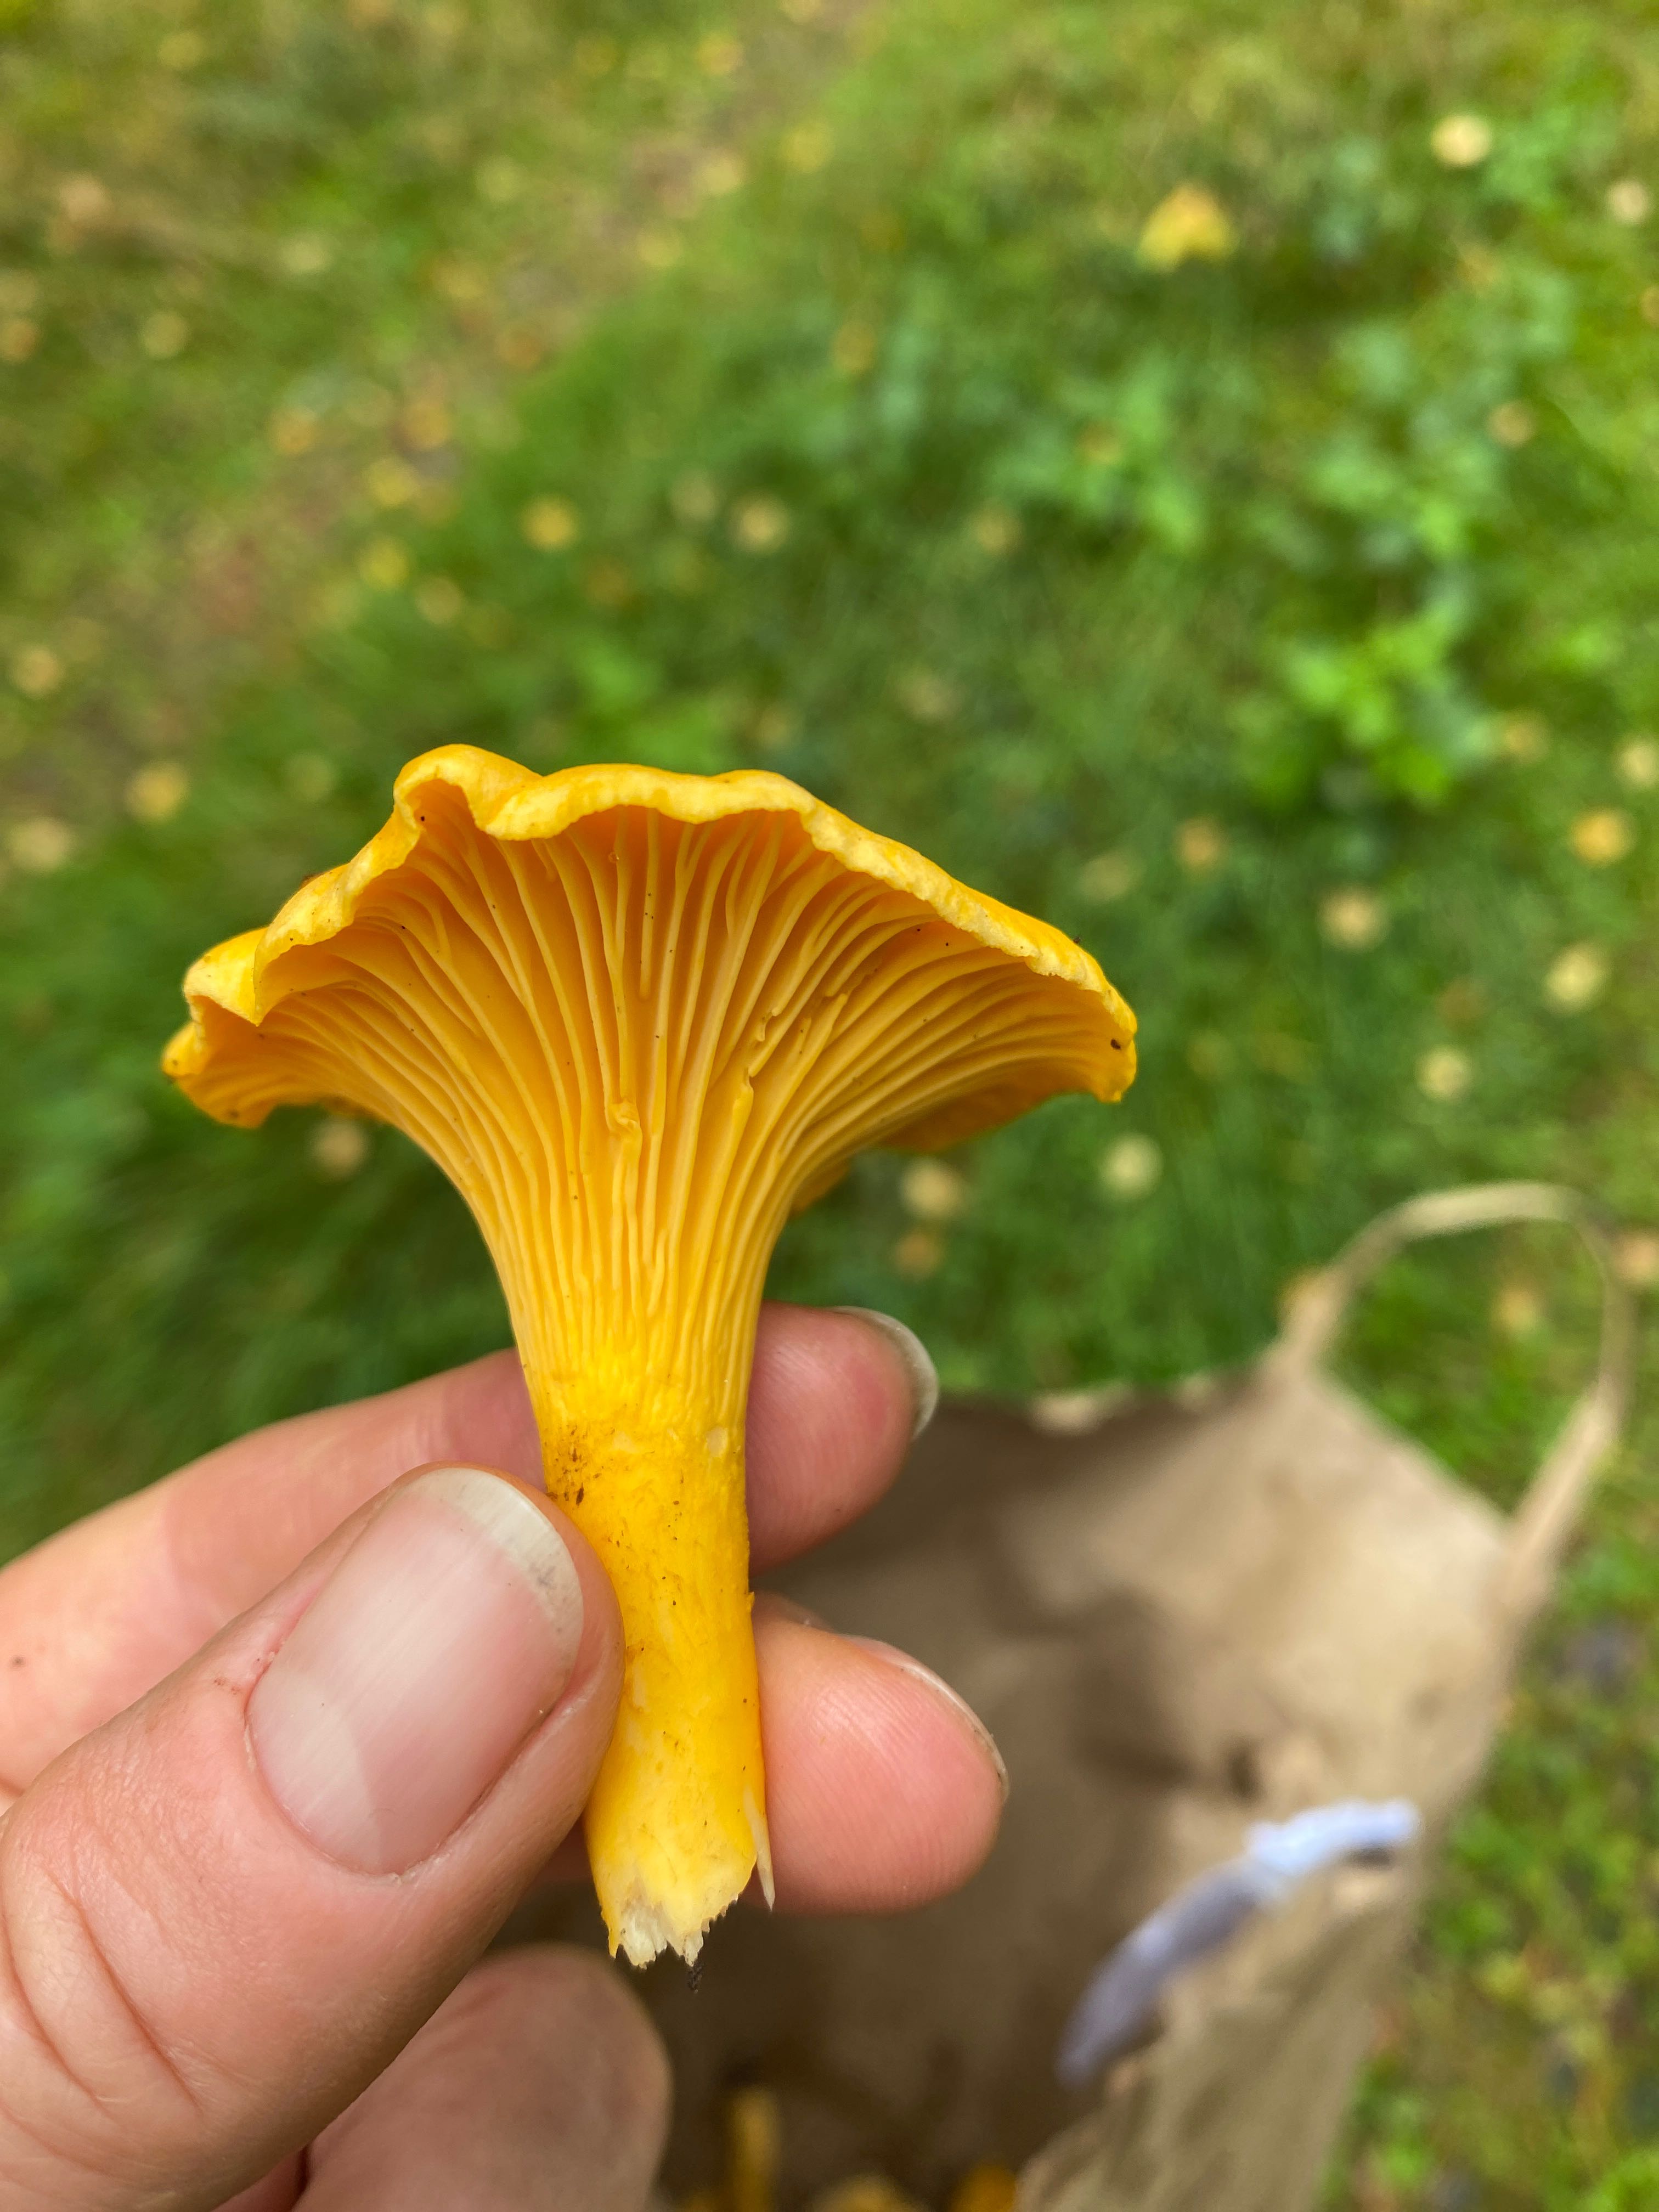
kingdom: Fungi
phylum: Basidiomycota
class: Agaricomycetes
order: Cantharellales
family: Hydnaceae
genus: Cantharellus
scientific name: Cantharellus cibarius
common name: almindelig kantarel
